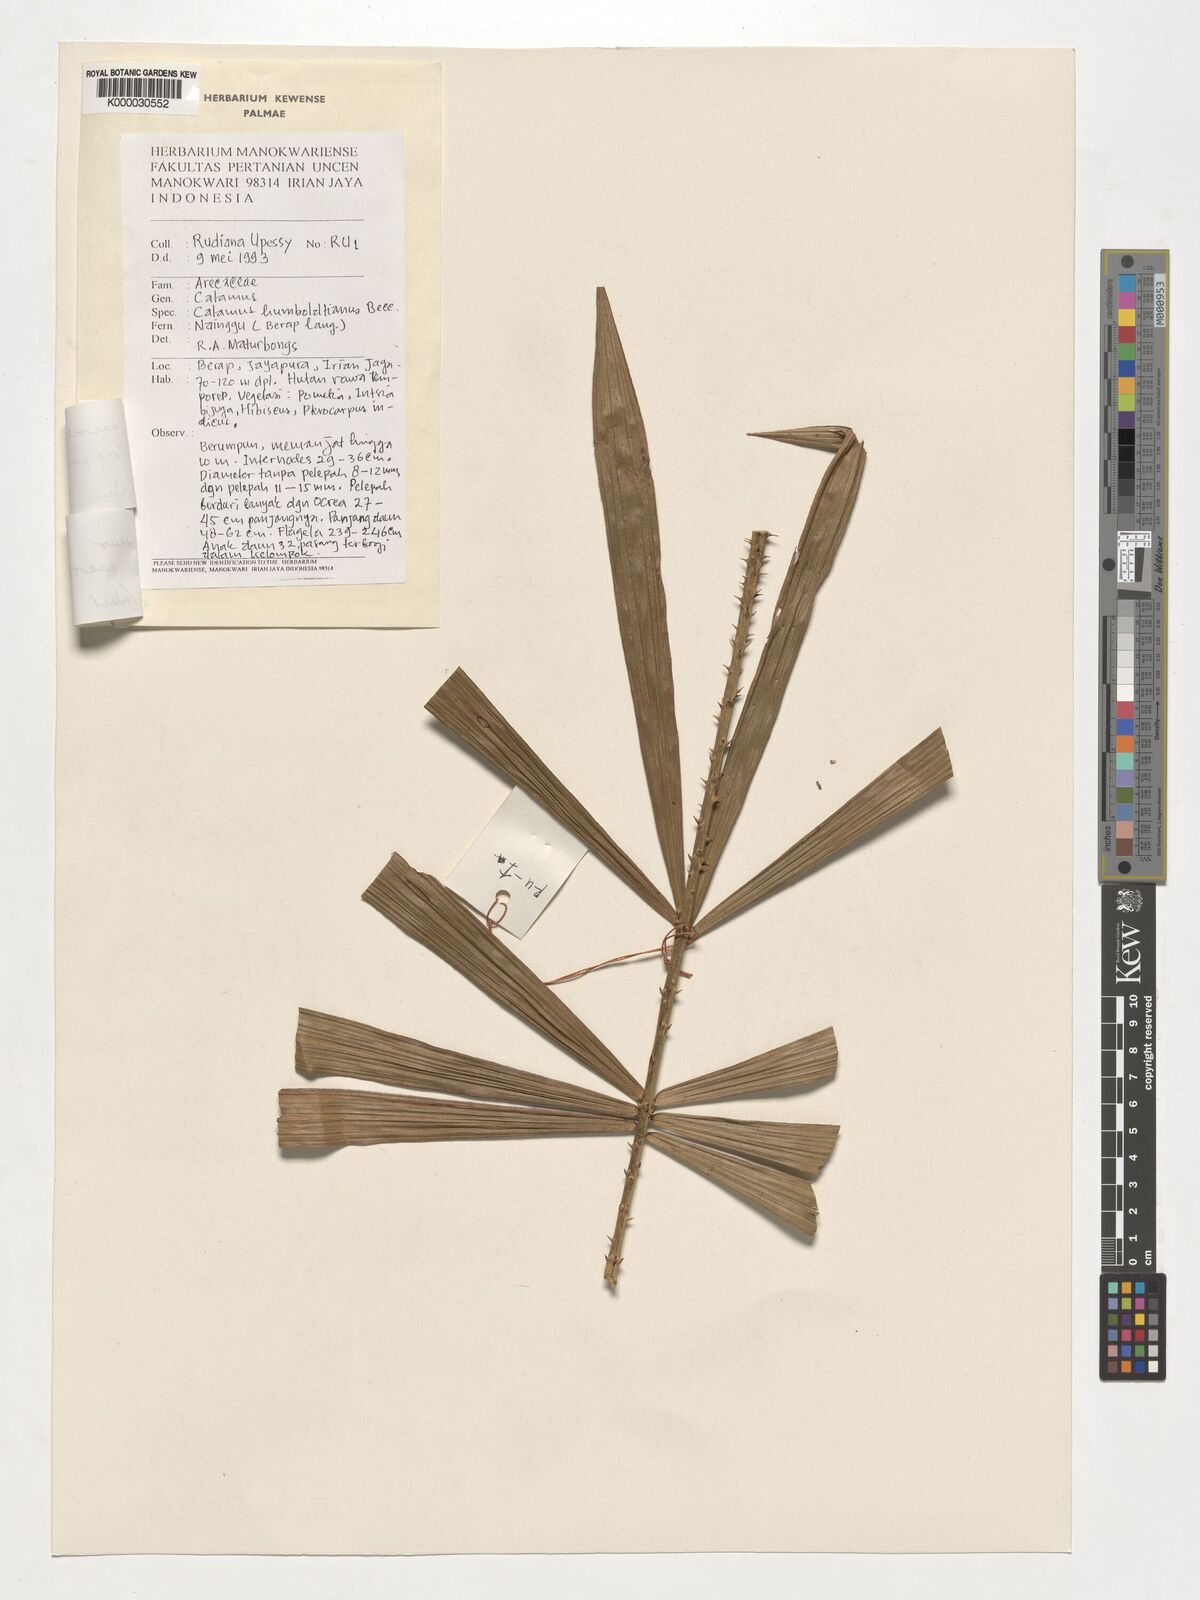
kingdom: Plantae
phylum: Tracheophyta
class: Liliopsida
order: Arecales
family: Arecaceae
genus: Calamus
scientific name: Calamus
